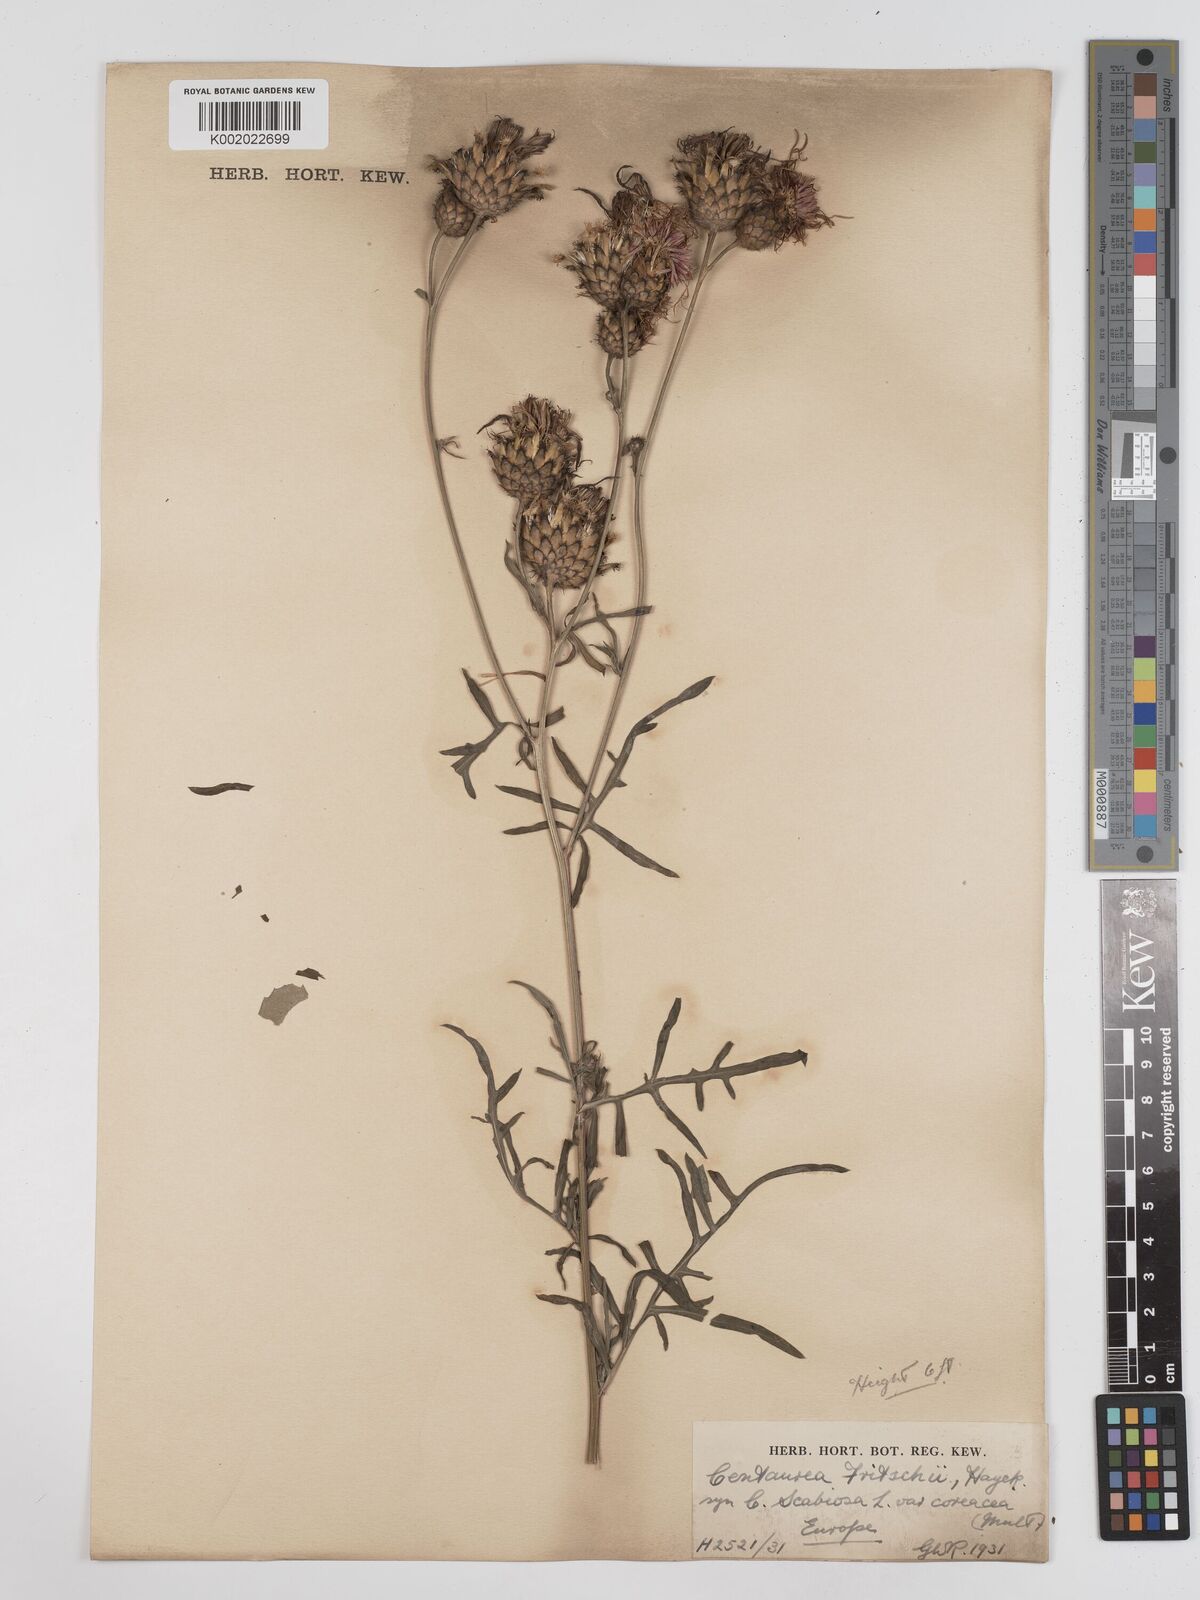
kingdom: Plantae
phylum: Tracheophyta
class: Magnoliopsida
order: Asterales
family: Asteraceae
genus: Centaurea
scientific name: Centaurea scabiosa
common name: Greater knapweed
